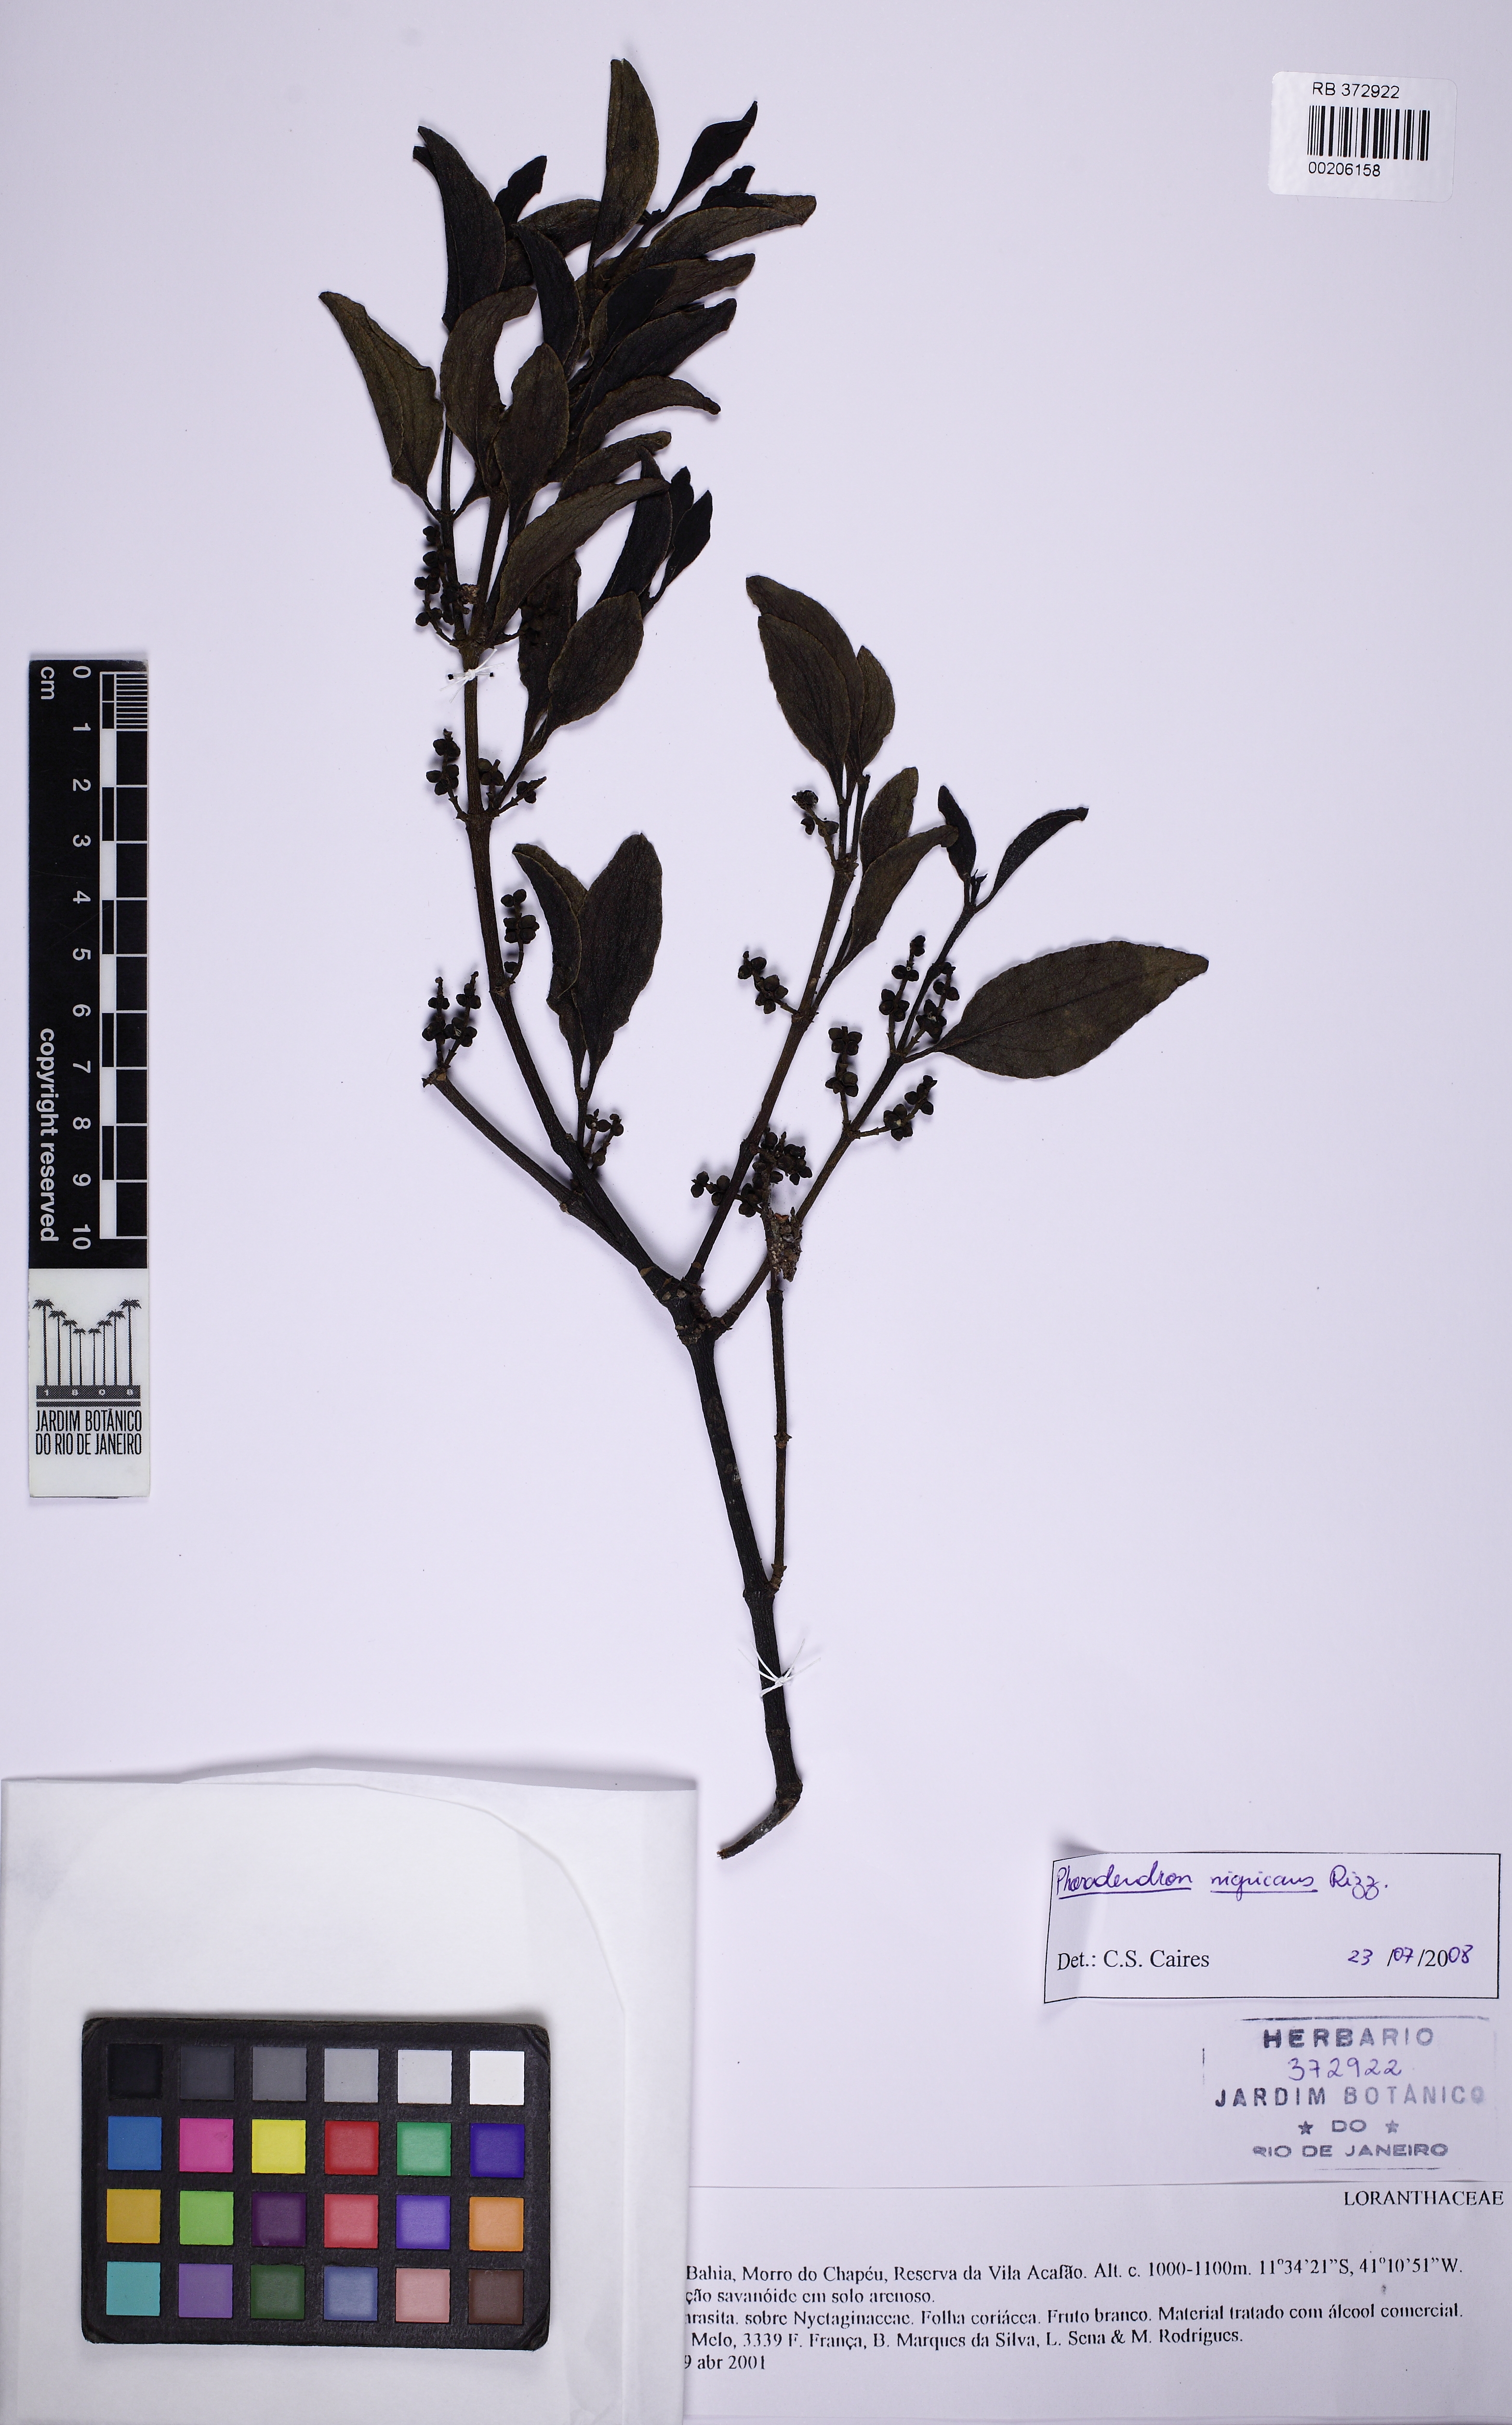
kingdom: Plantae
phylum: Tracheophyta
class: Magnoliopsida
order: Santalales
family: Viscaceae
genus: Phoradendron
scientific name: Phoradendron nigricans
